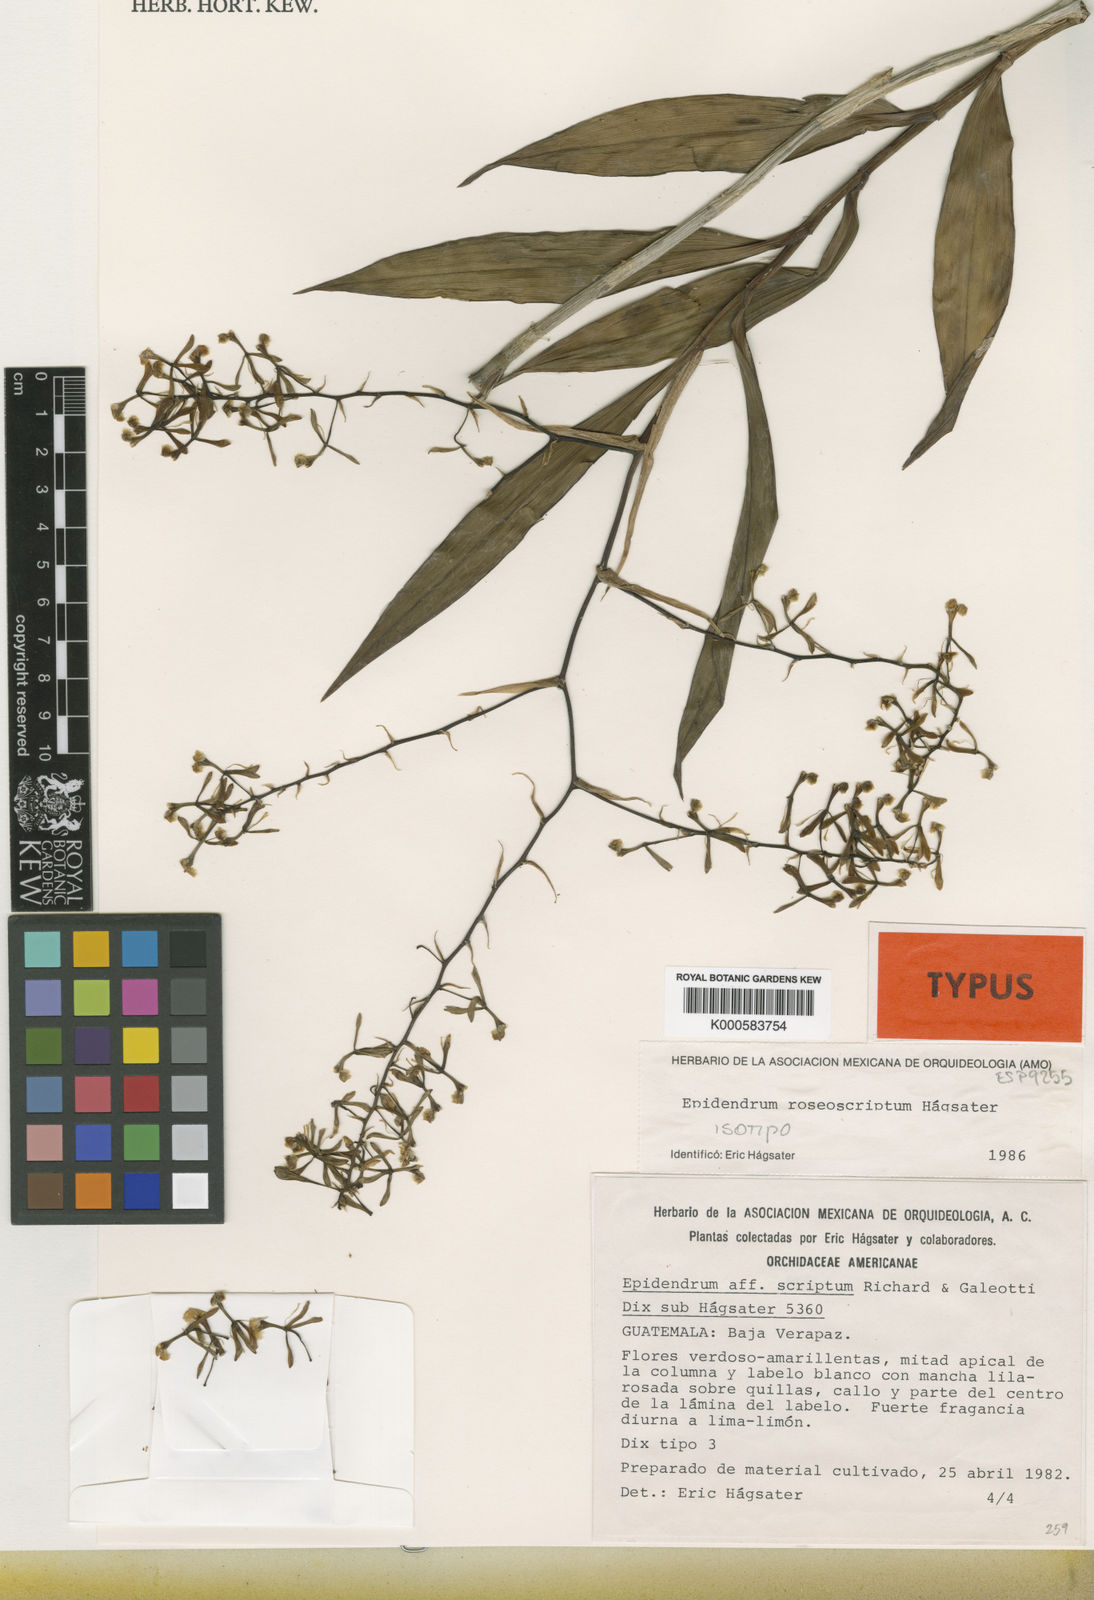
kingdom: Plantae
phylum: Tracheophyta
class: Liliopsida
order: Asparagales
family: Orchidaceae
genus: Epidendrum
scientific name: Epidendrum
